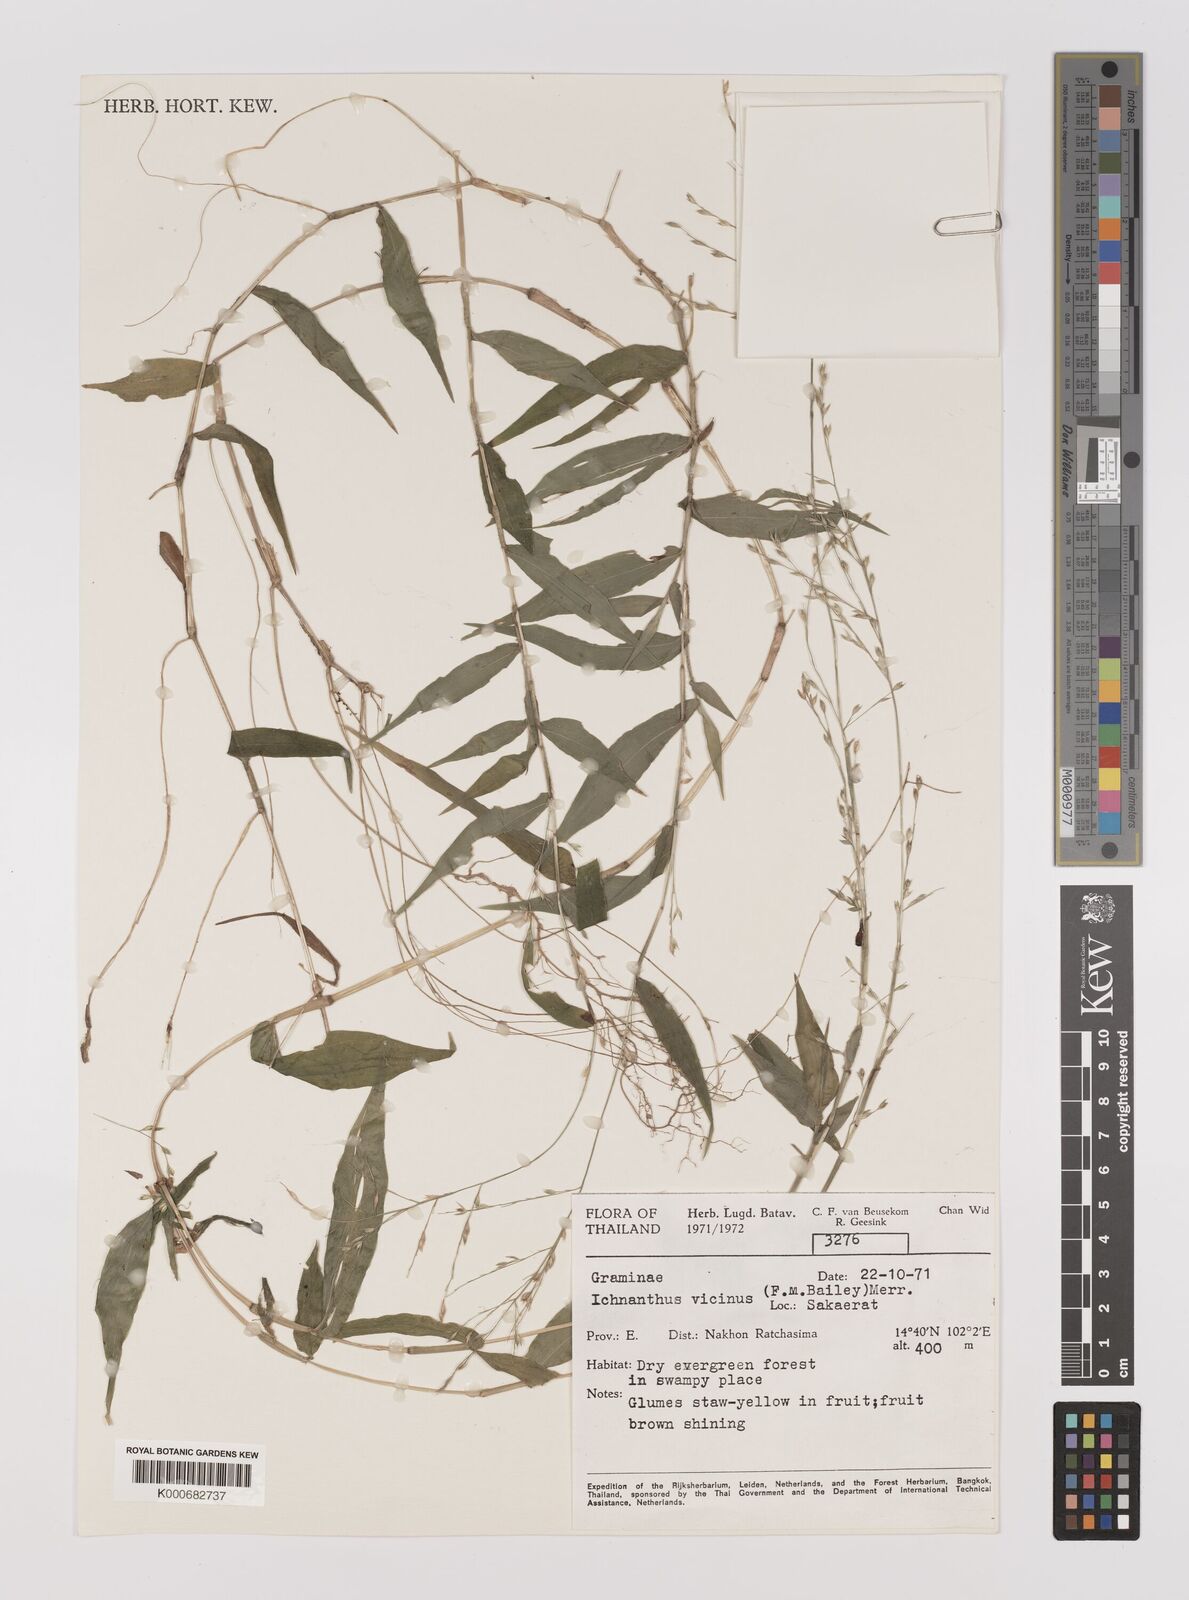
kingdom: Plantae
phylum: Tracheophyta
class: Liliopsida
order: Poales
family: Poaceae
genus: Ichnanthus
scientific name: Ichnanthus pallens
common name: Water grass
